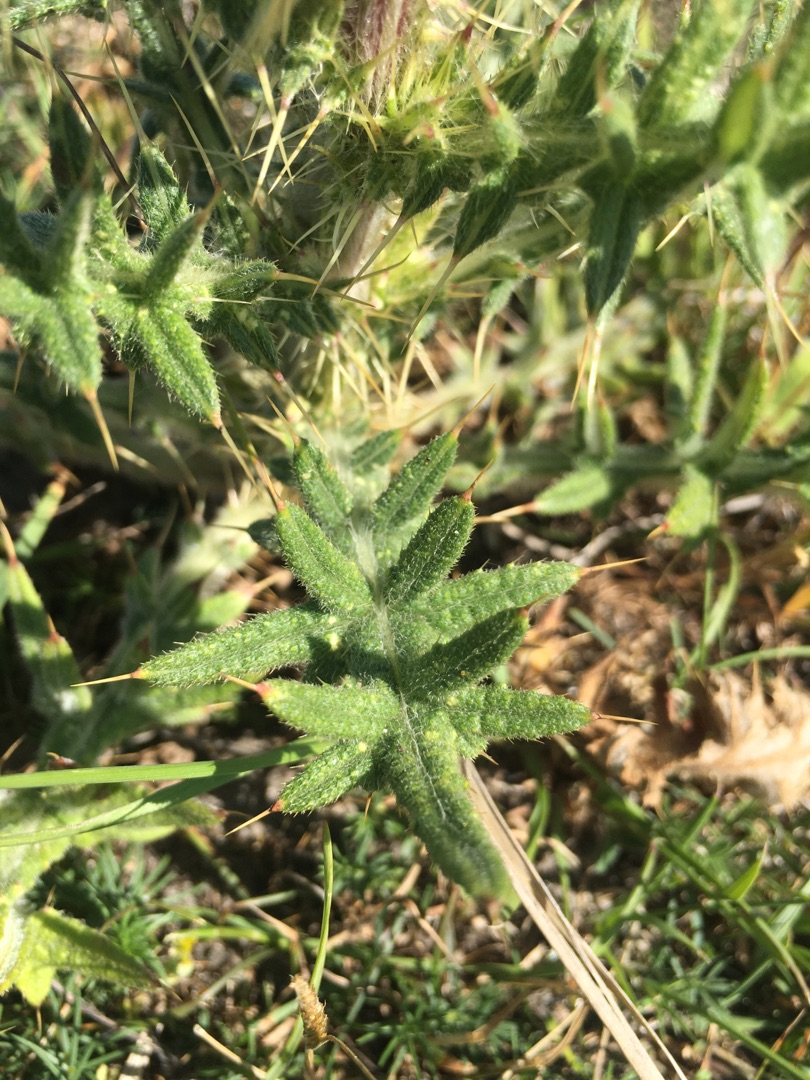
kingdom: Plantae
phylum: Tracheophyta
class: Magnoliopsida
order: Asterales
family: Asteraceae
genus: Cirsium
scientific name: Cirsium vulgare
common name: Horse-tidsel
